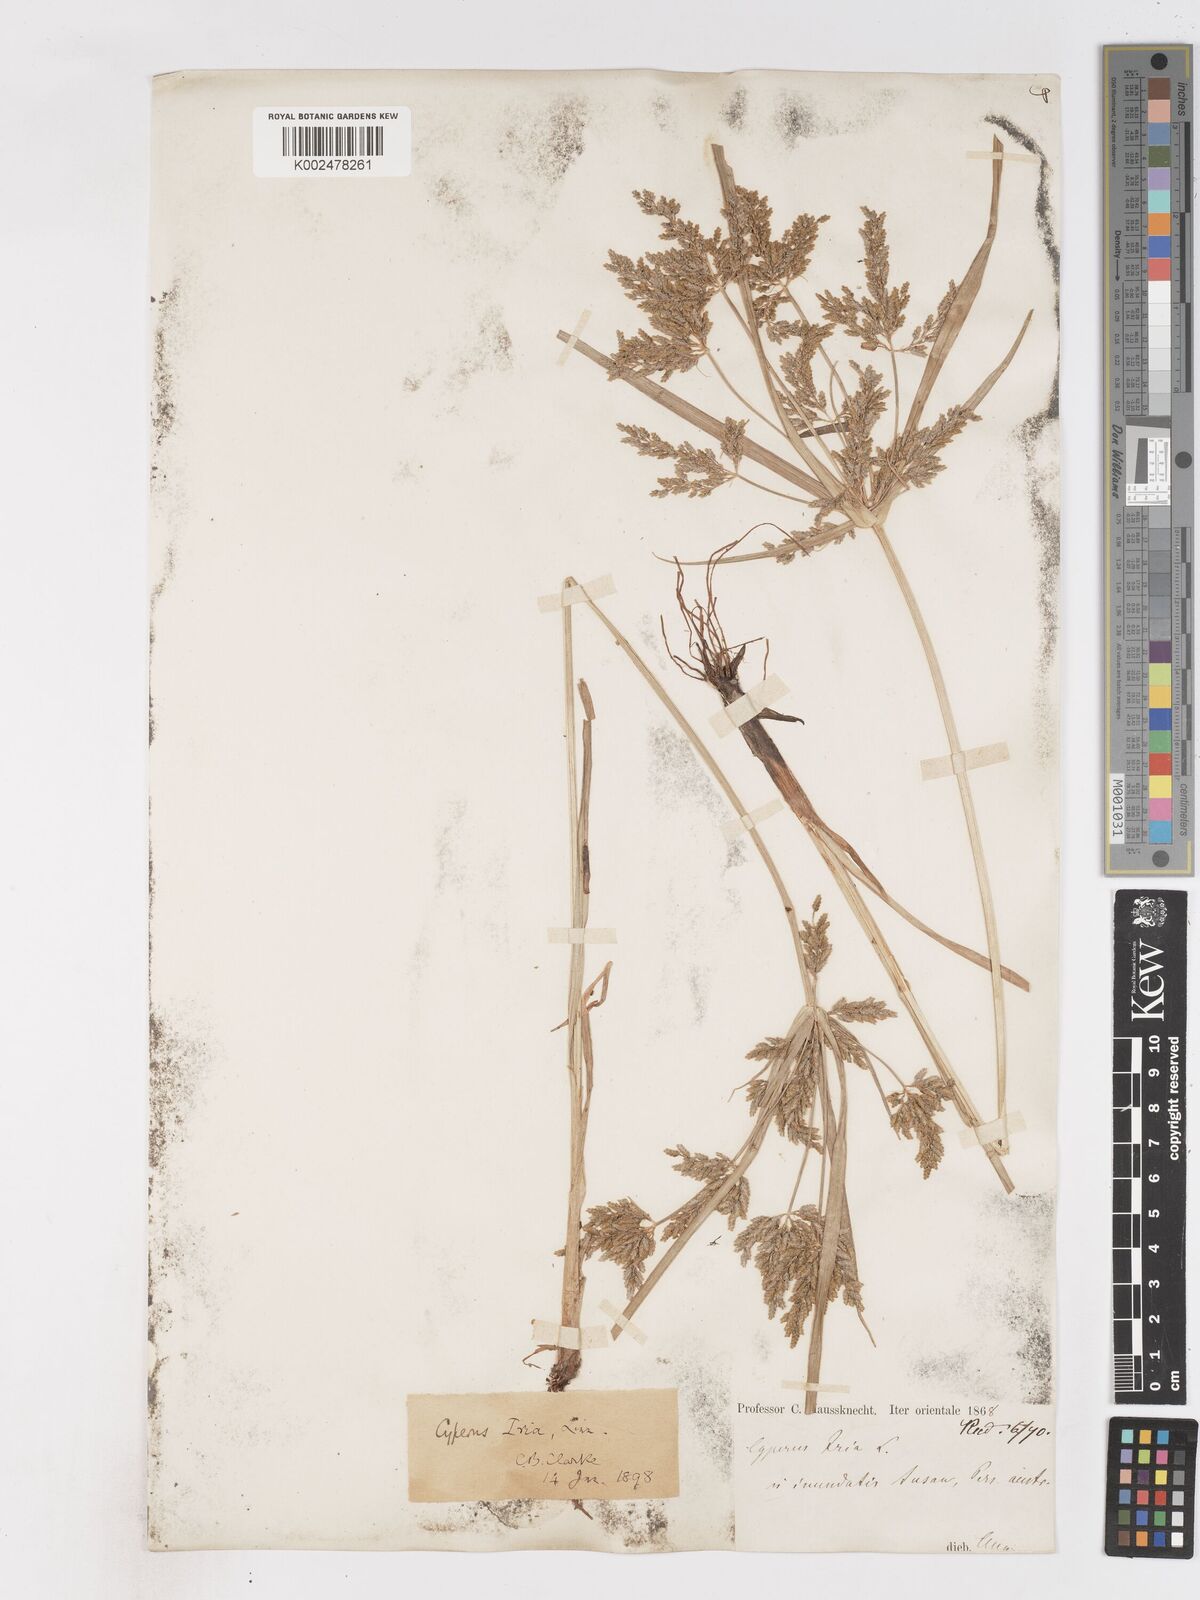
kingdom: Plantae
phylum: Tracheophyta
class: Liliopsida
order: Poales
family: Cyperaceae
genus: Cyperus
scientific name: Cyperus iria
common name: Ricefield flatsedge
